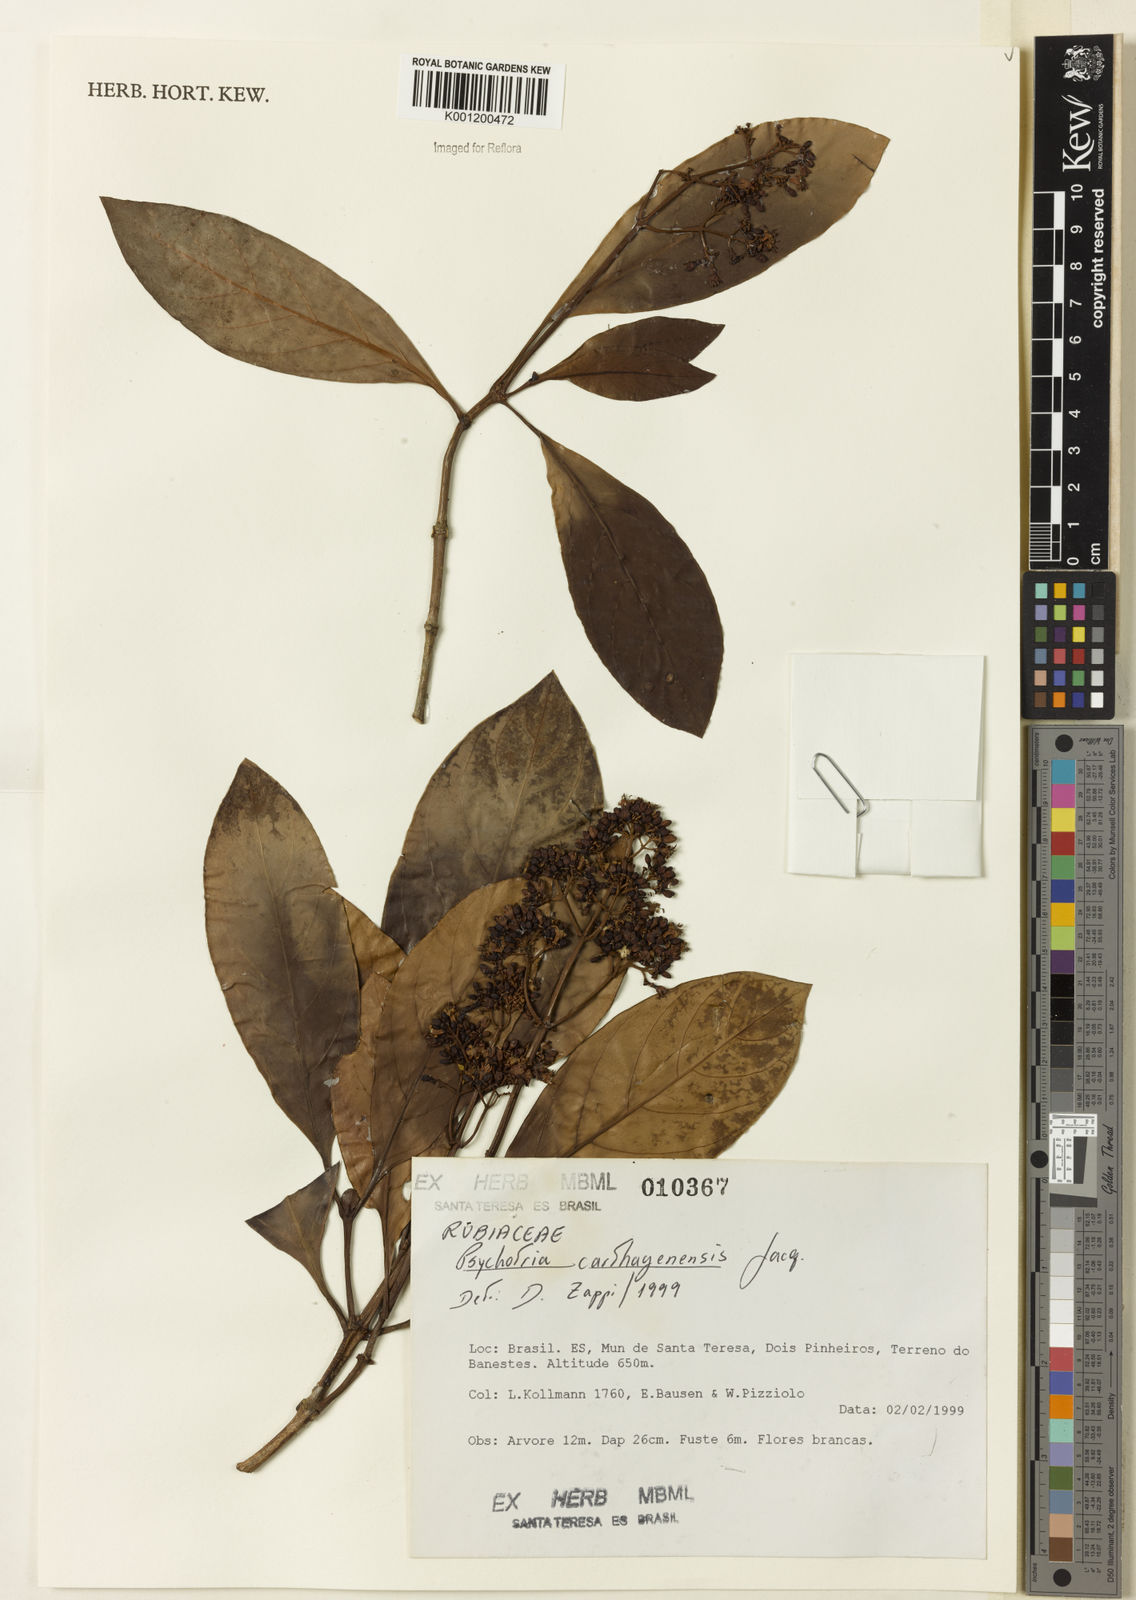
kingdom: Plantae
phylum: Tracheophyta
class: Magnoliopsida
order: Gentianales
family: Rubiaceae
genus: Psychotria
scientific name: Psychotria carthagenensis
